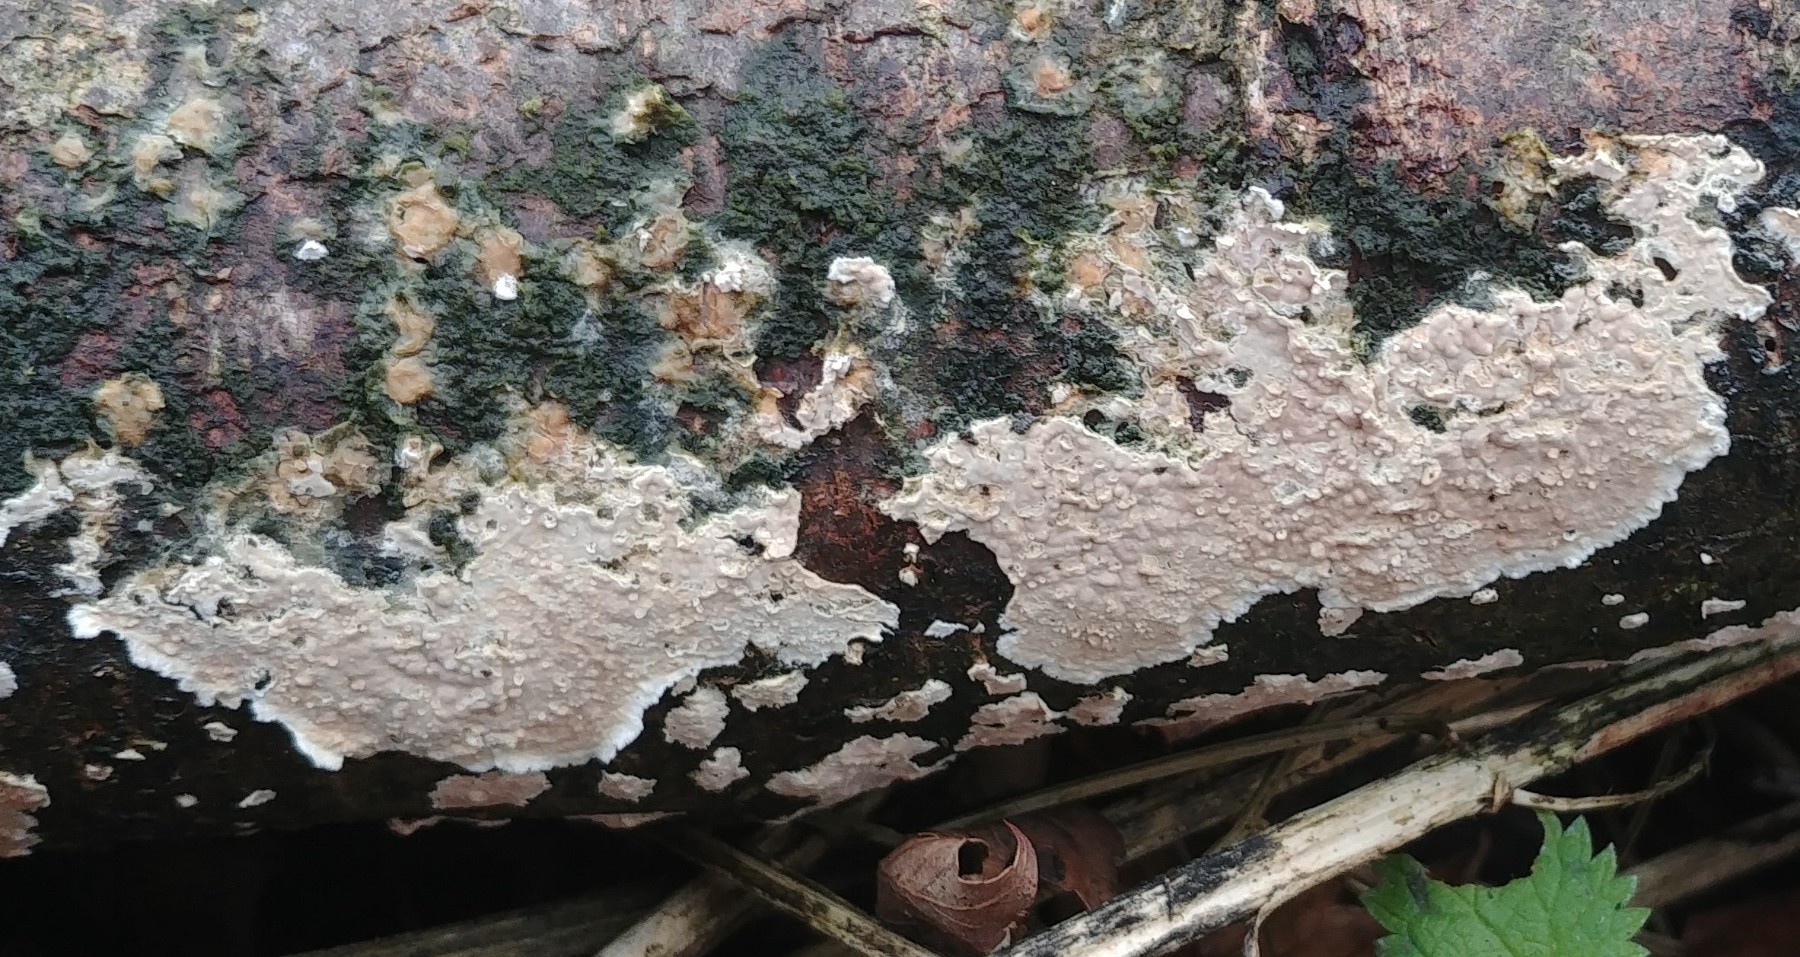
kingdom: Fungi
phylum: Basidiomycota
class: Agaricomycetes
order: Agaricales
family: Physalacriaceae
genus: Cylindrobasidium
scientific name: Cylindrobasidium evolvens
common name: sprækkehinde
